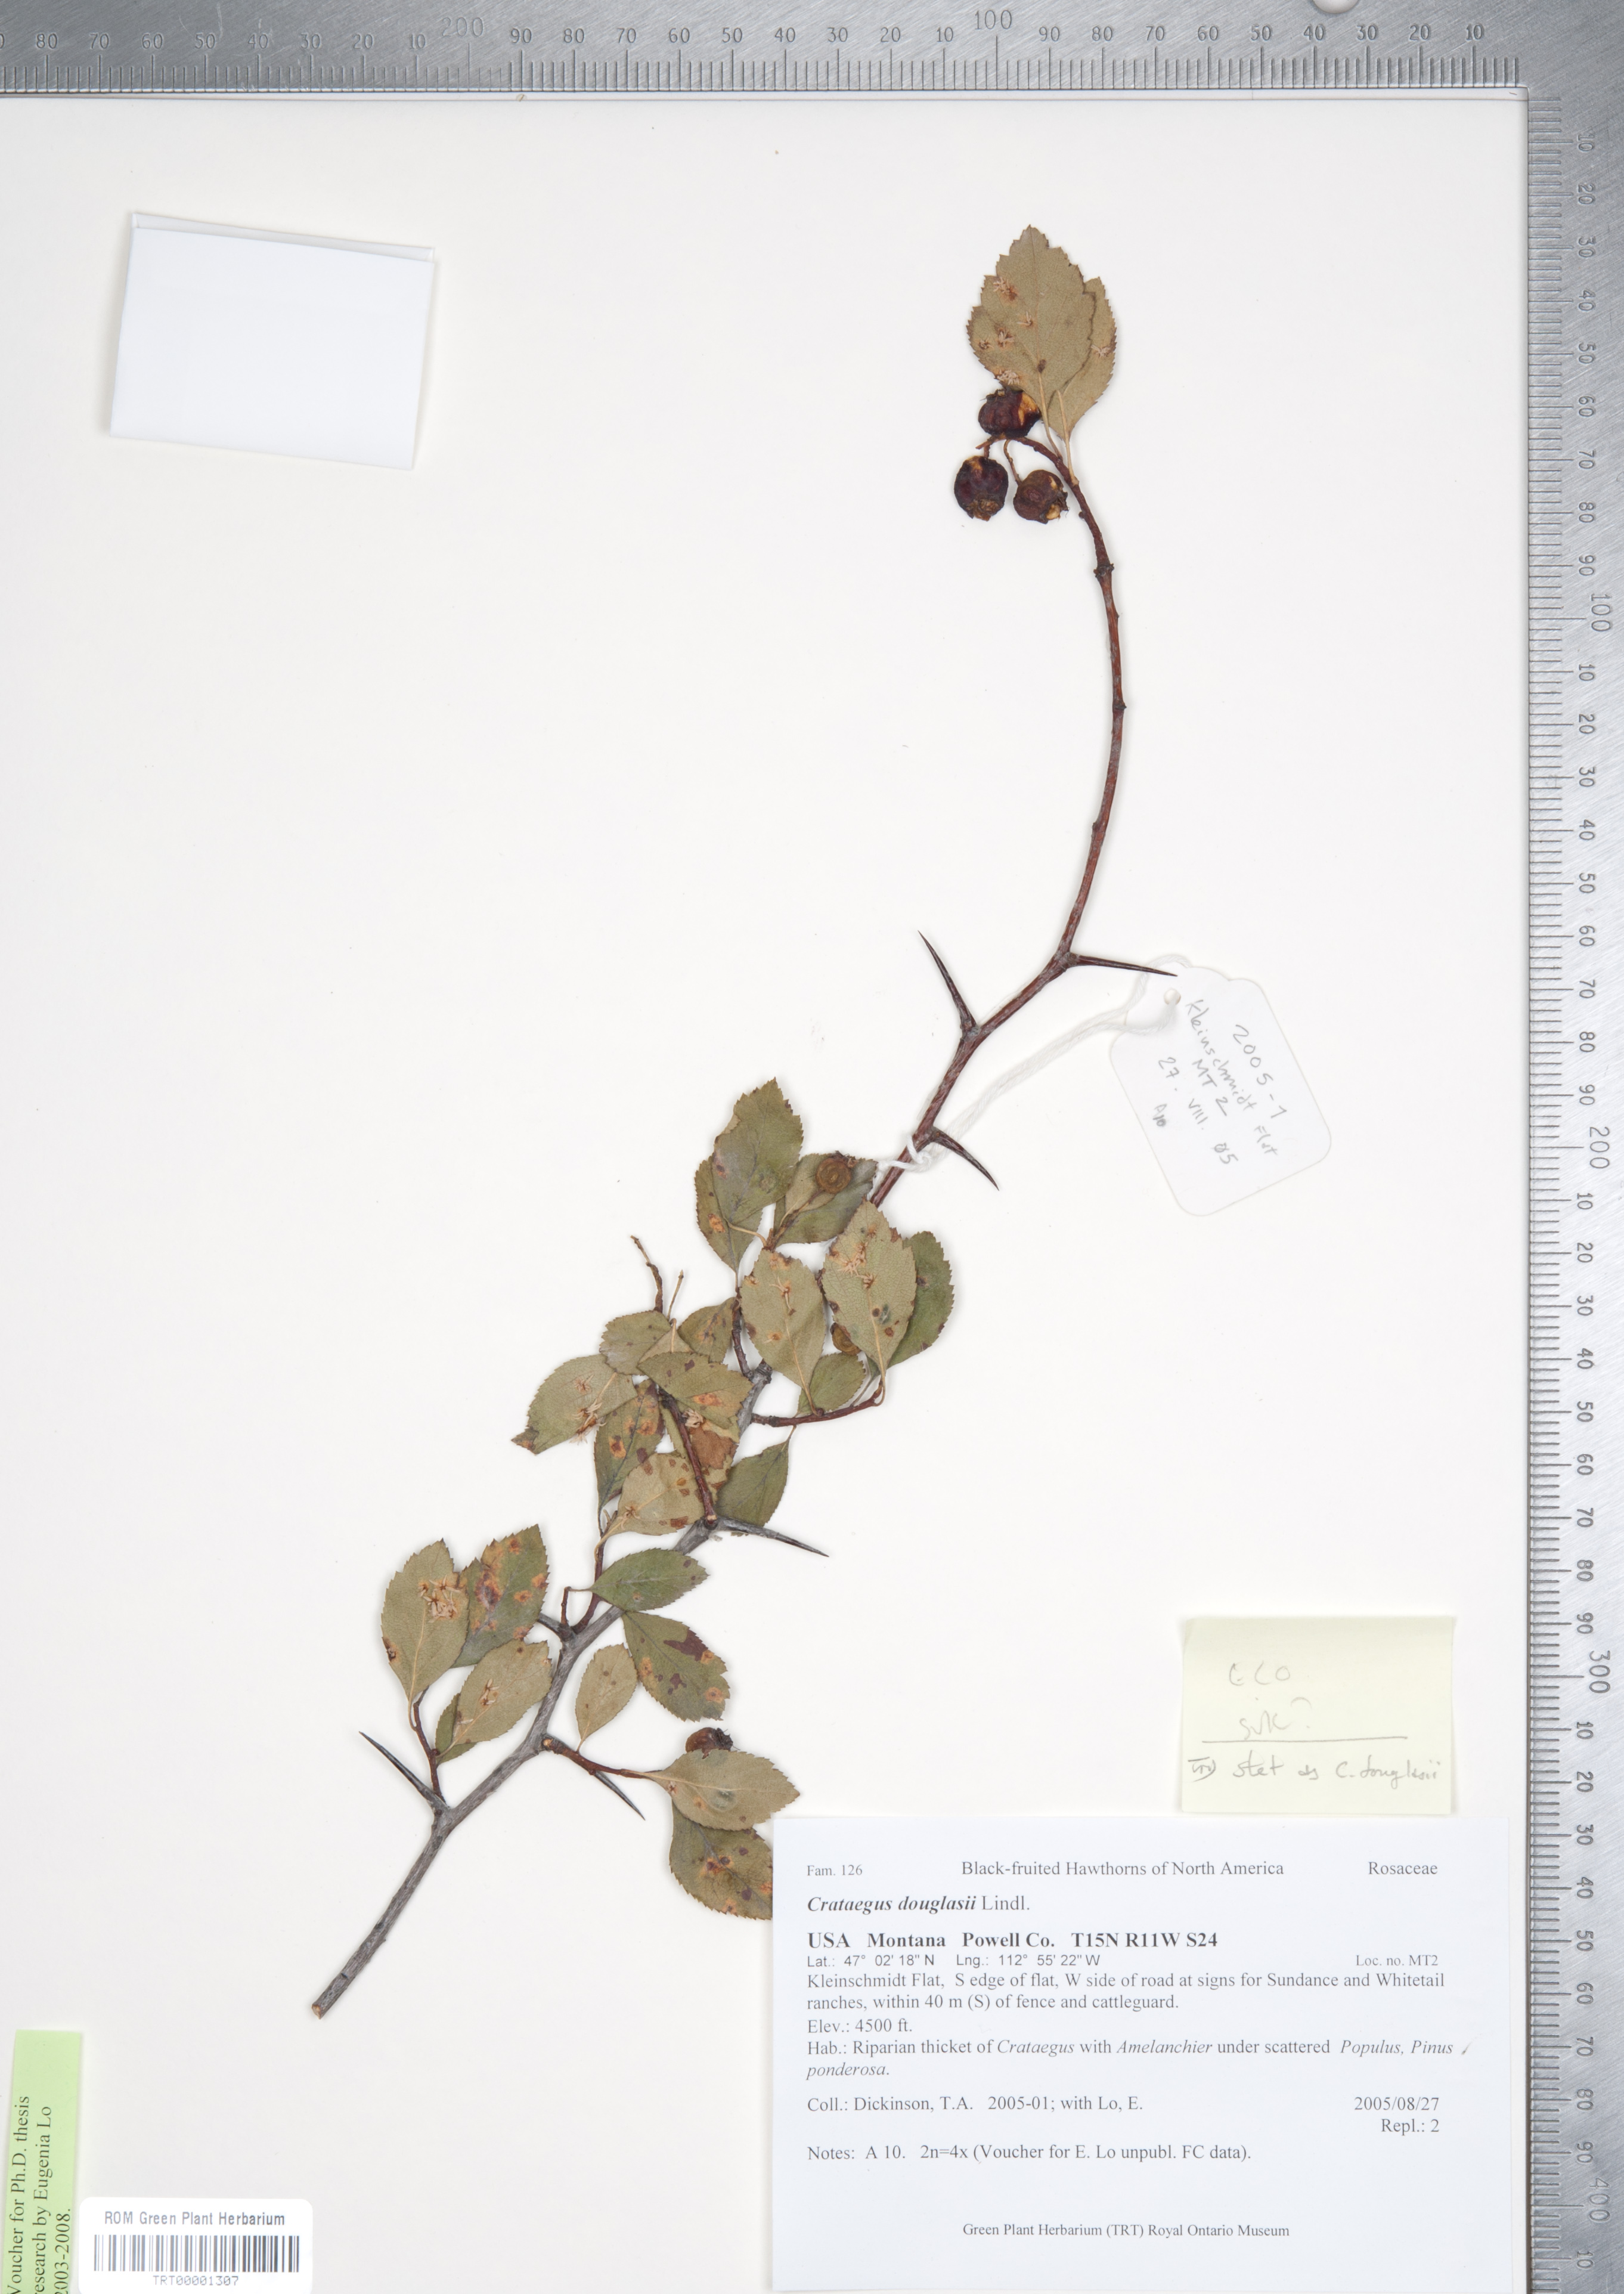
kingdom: Plantae
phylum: Tracheophyta
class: Magnoliopsida
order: Rosales
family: Rosaceae
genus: Crataegus
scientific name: Crataegus douglasii
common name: Black hawthorn
